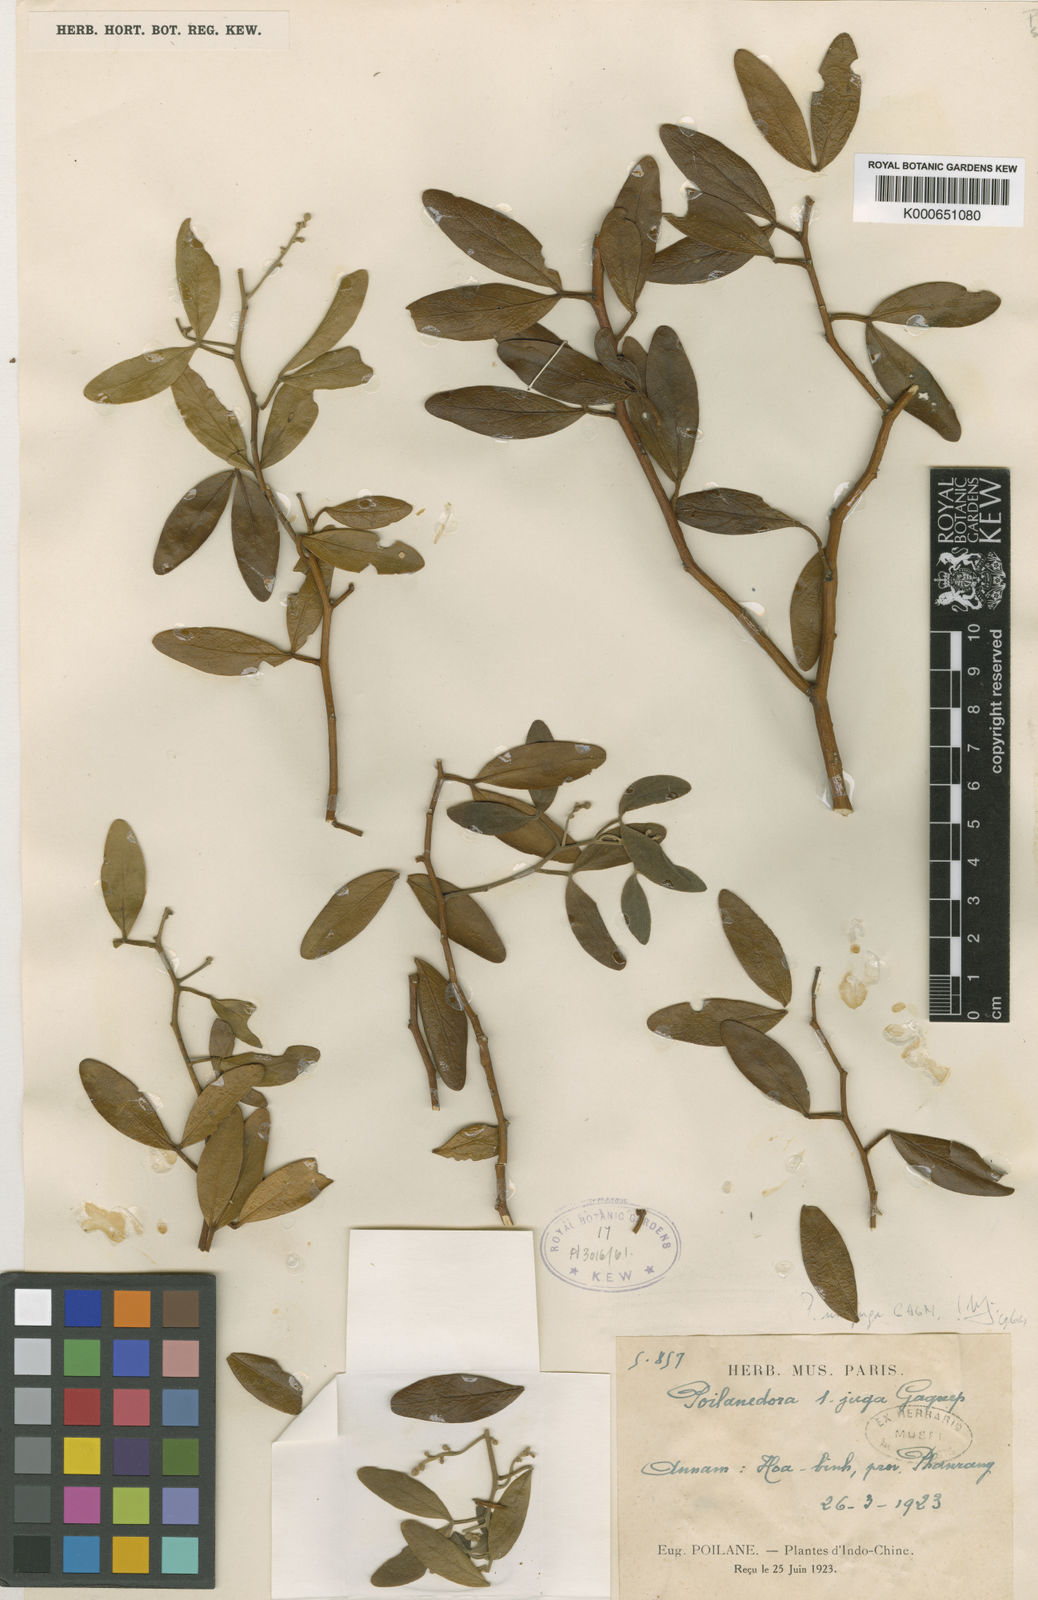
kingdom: Plantae
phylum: Tracheophyta
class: Magnoliopsida
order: Brassicales
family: Capparaceae
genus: Poilanedora
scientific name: Poilanedora unijuga
